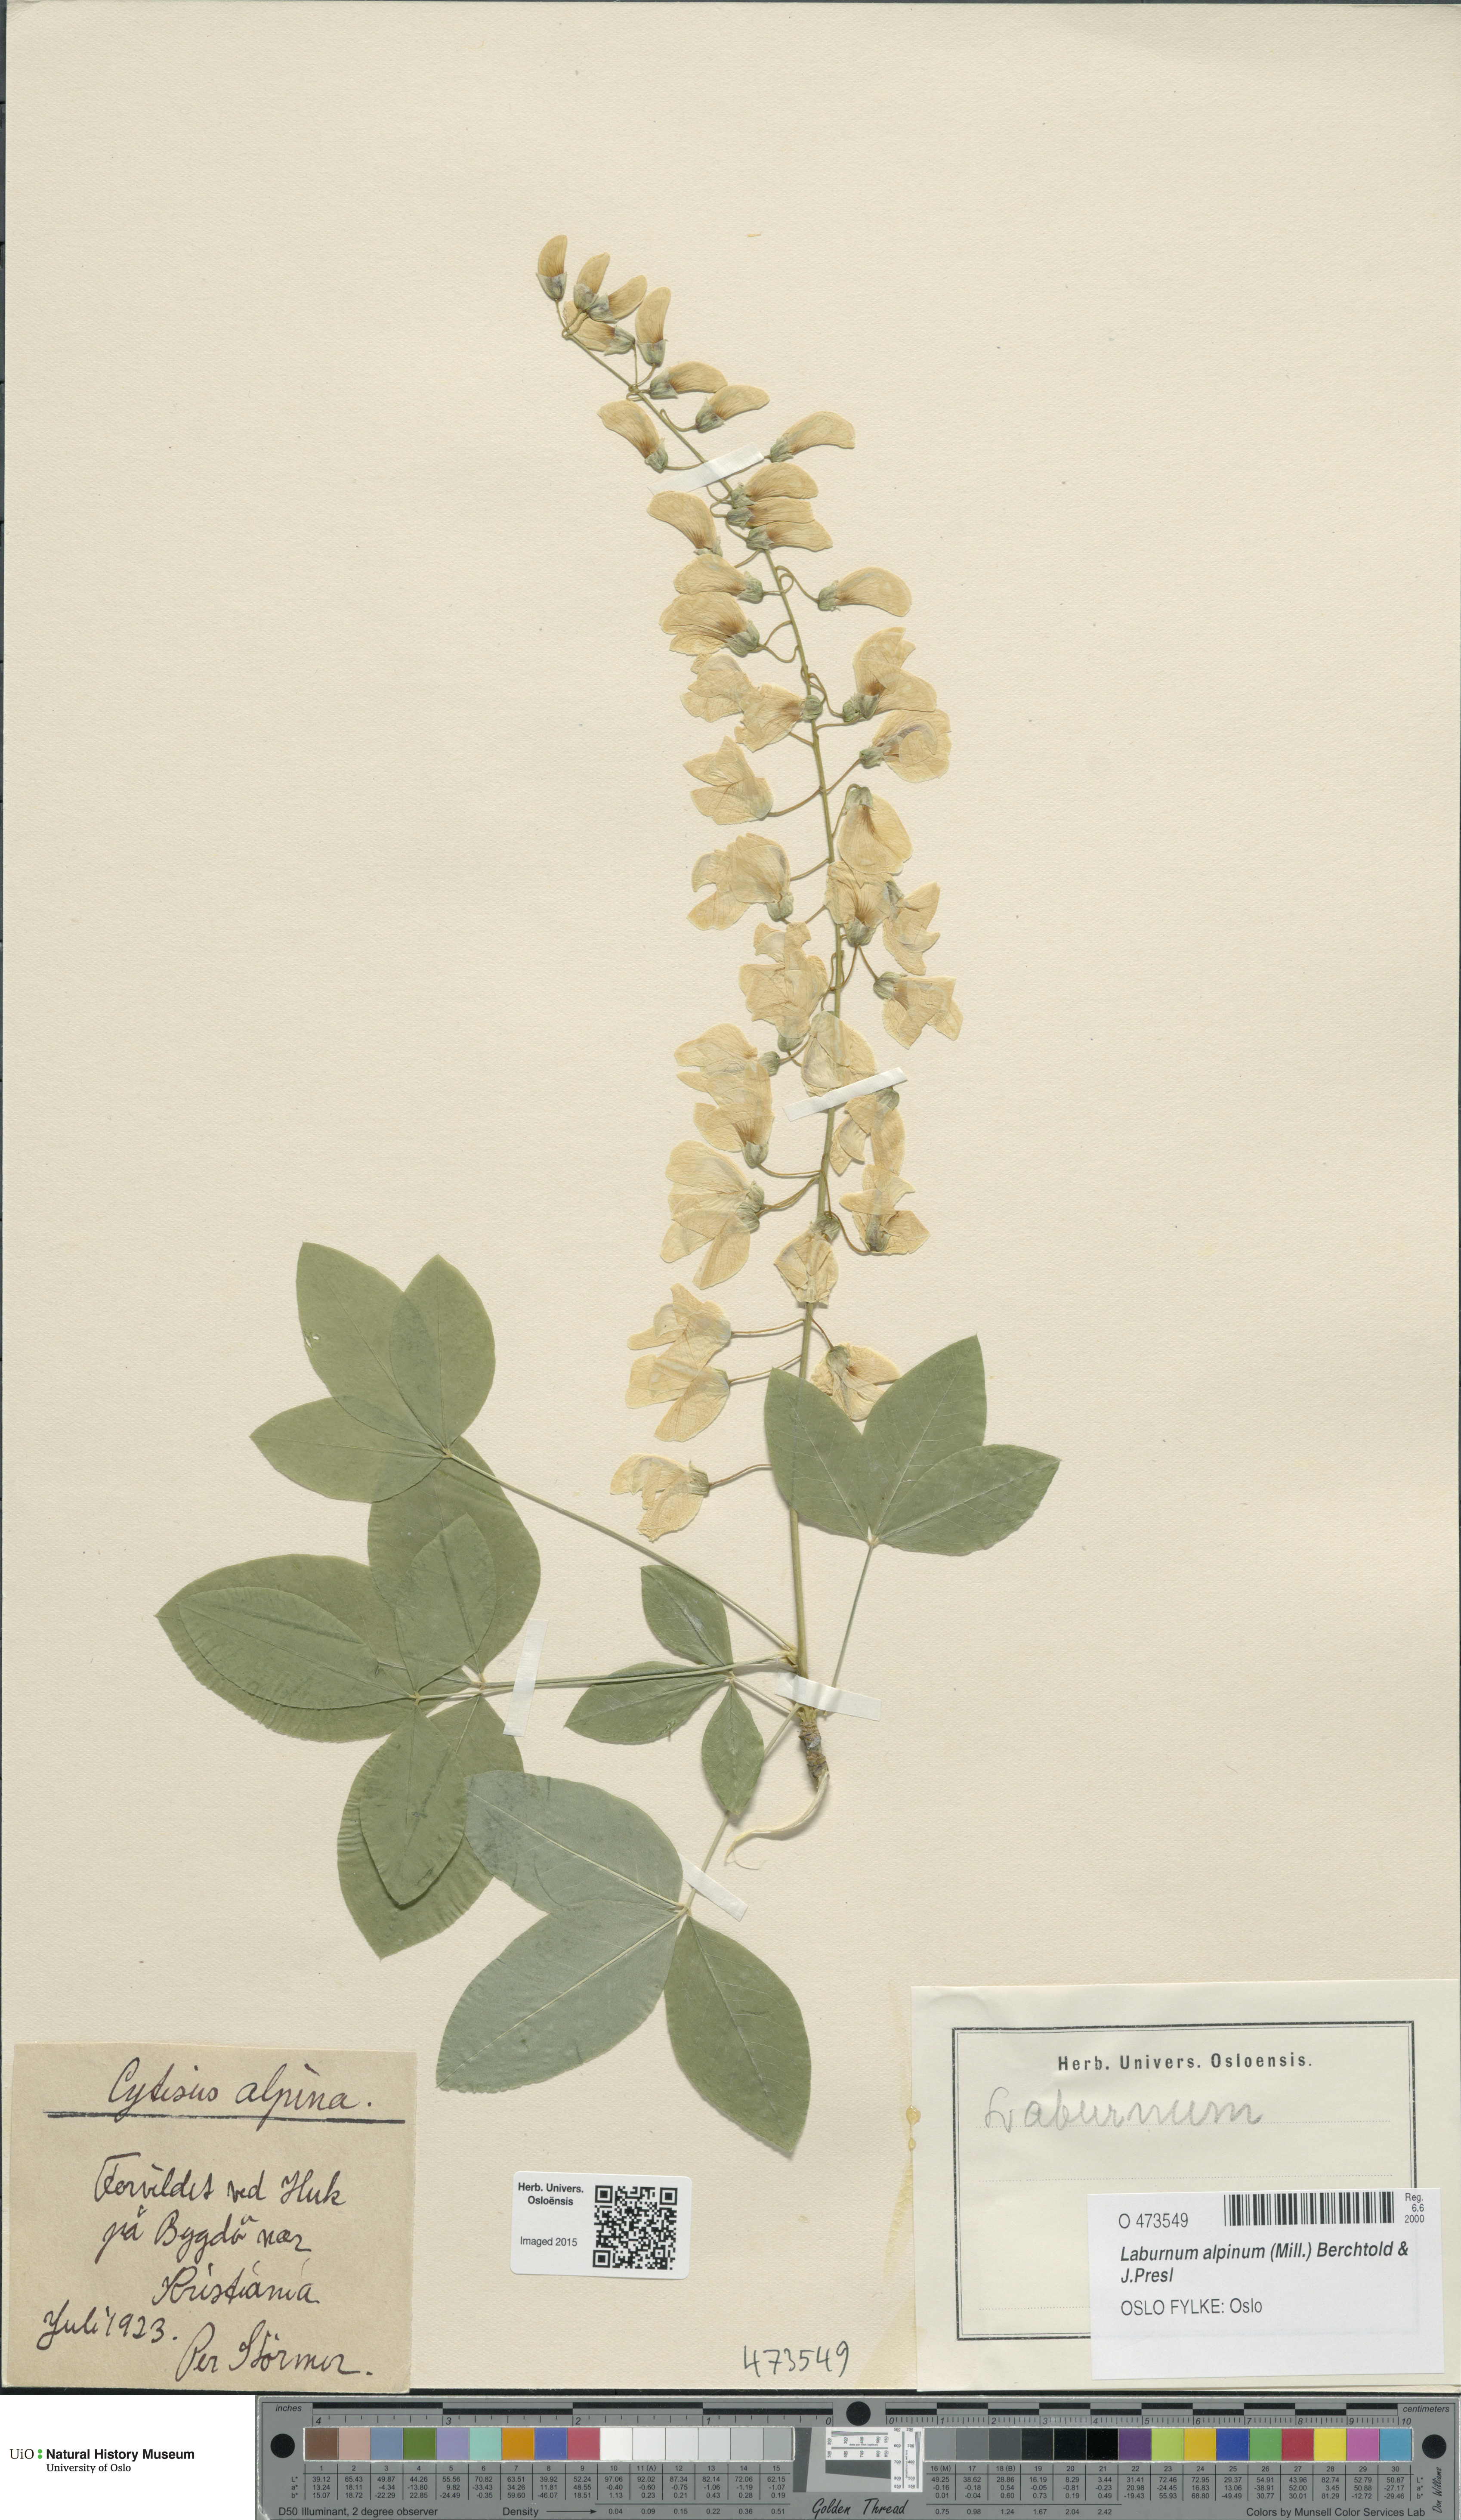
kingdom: Plantae
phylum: Tracheophyta
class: Magnoliopsida
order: Fabales
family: Fabaceae
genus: Laburnum
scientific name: Laburnum alpinum
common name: Scottish laburnum
